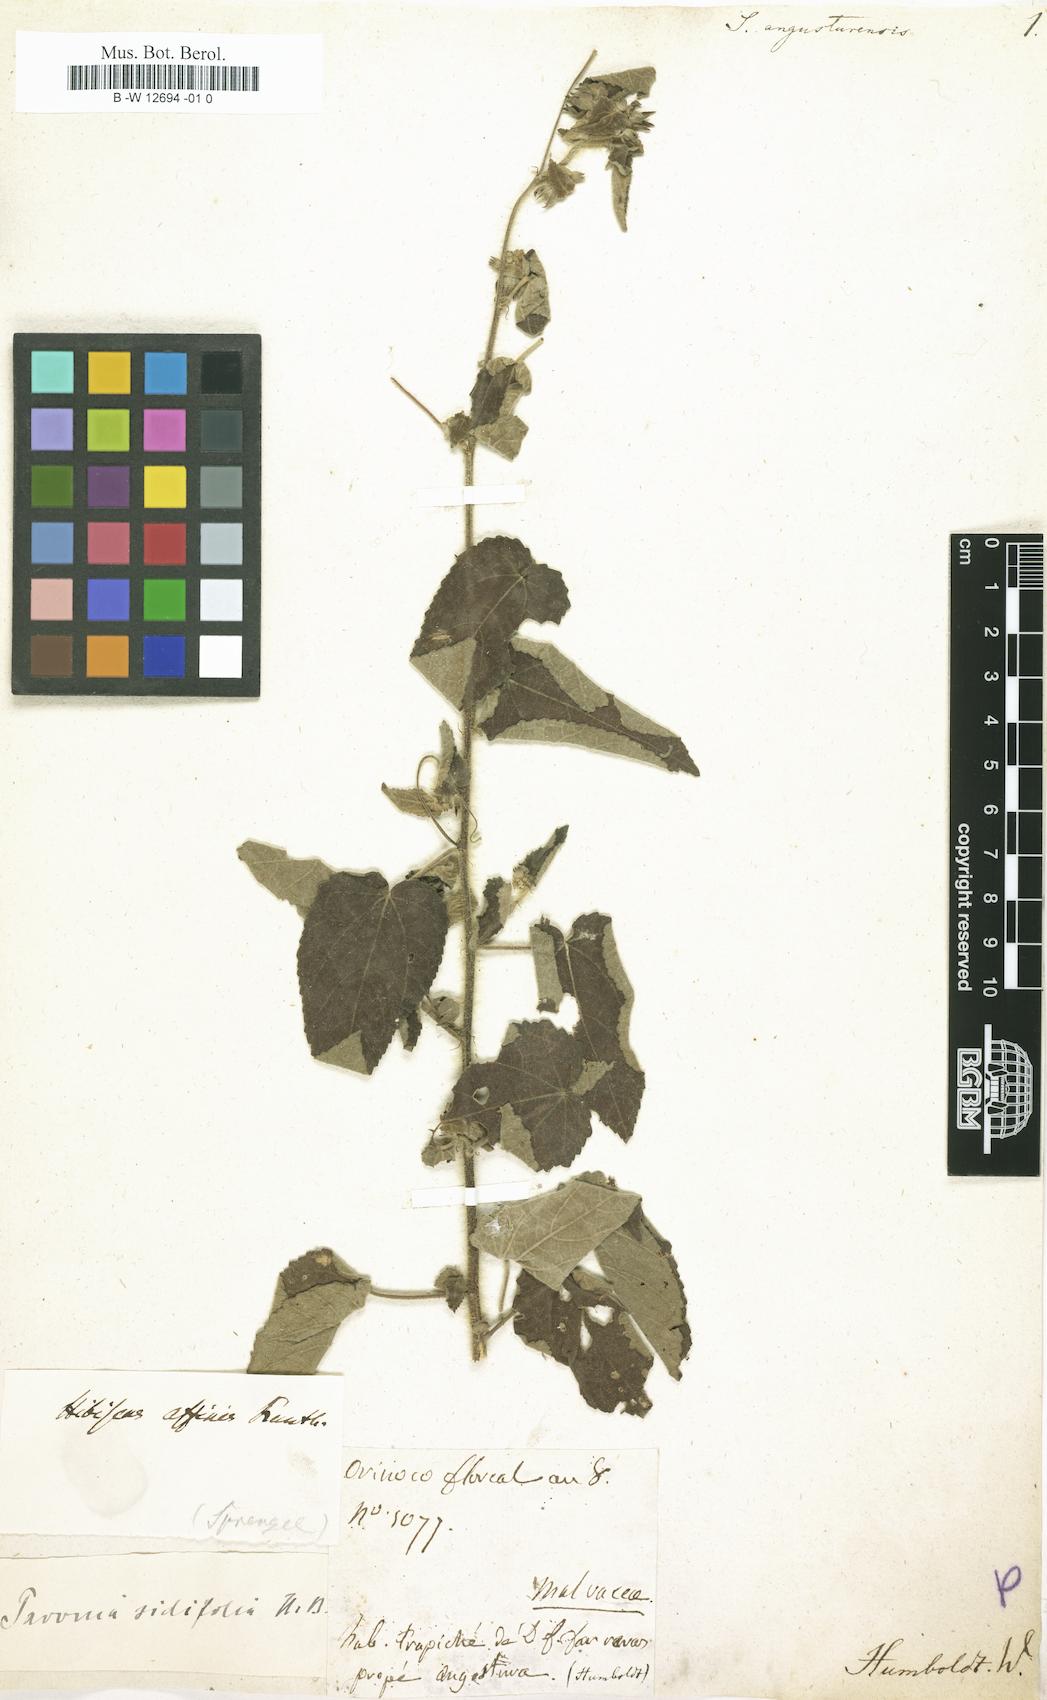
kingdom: Plantae
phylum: Tracheophyta
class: Magnoliopsida
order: Malvales
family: Malvaceae
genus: Cienfuegosia
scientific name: Cienfuegosia affinis
